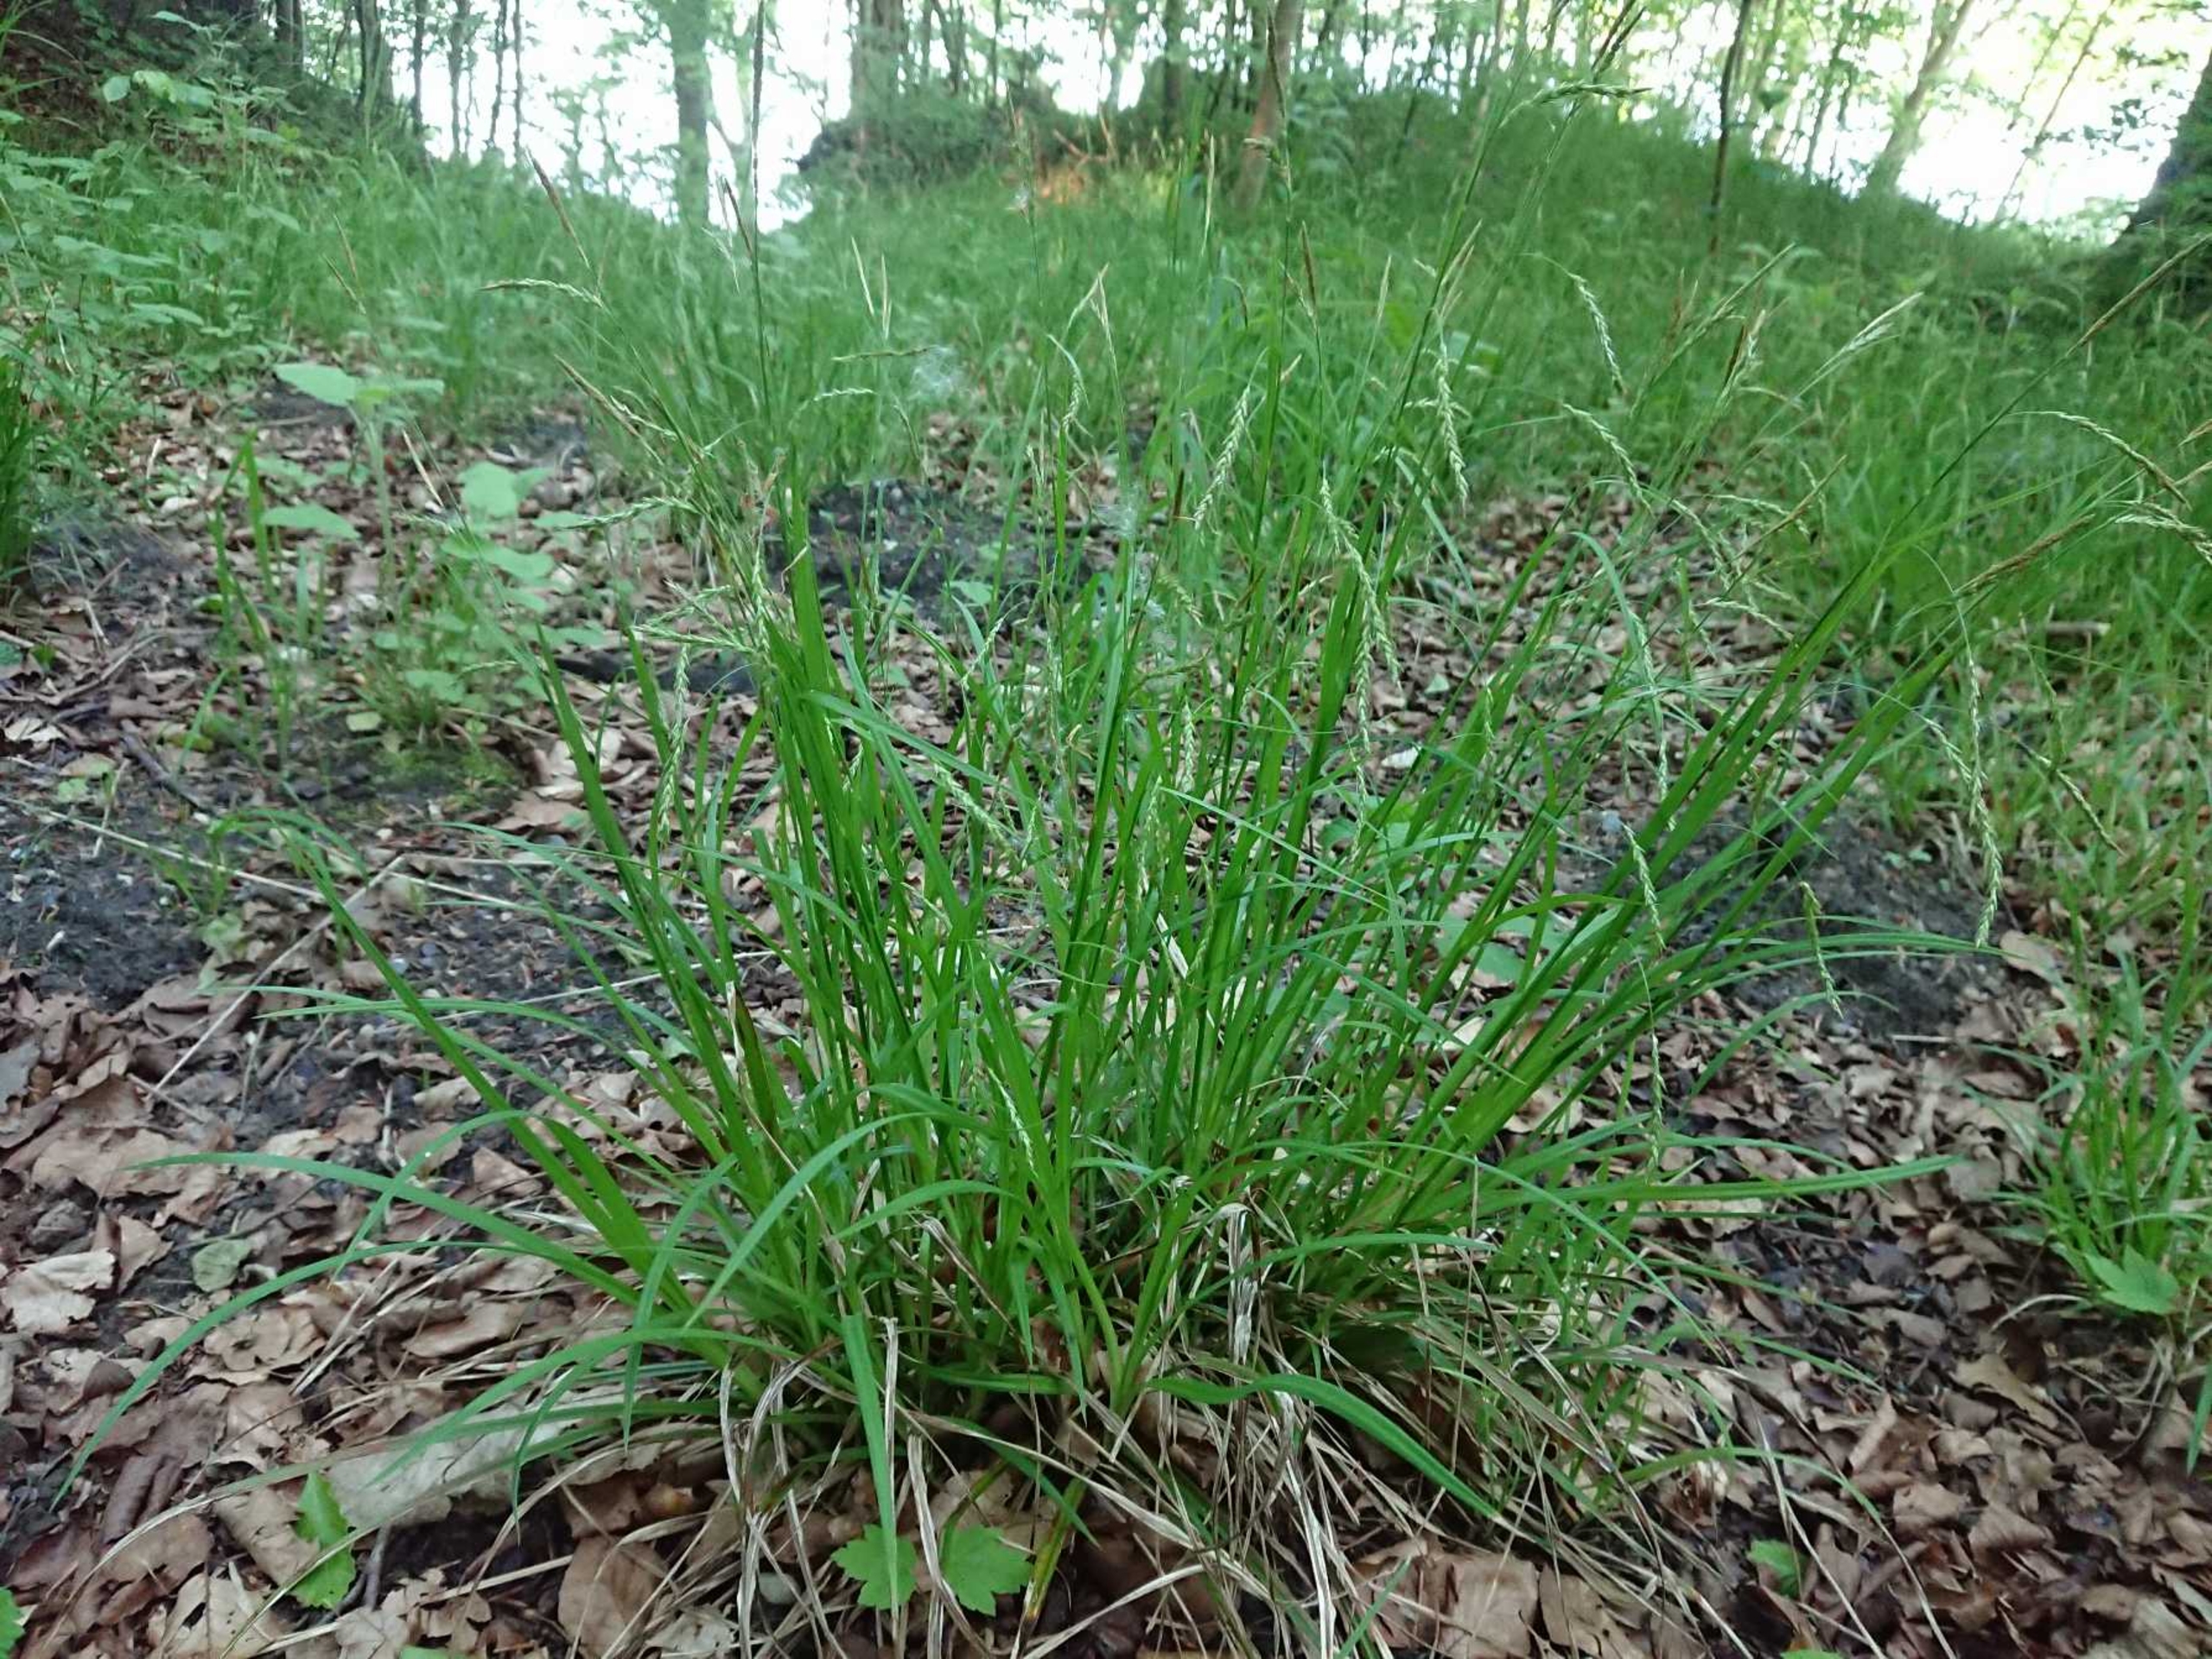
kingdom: Plantae
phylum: Tracheophyta
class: Liliopsida
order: Poales
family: Cyperaceae
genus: Carex
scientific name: Carex sylvatica
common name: Skov-star
